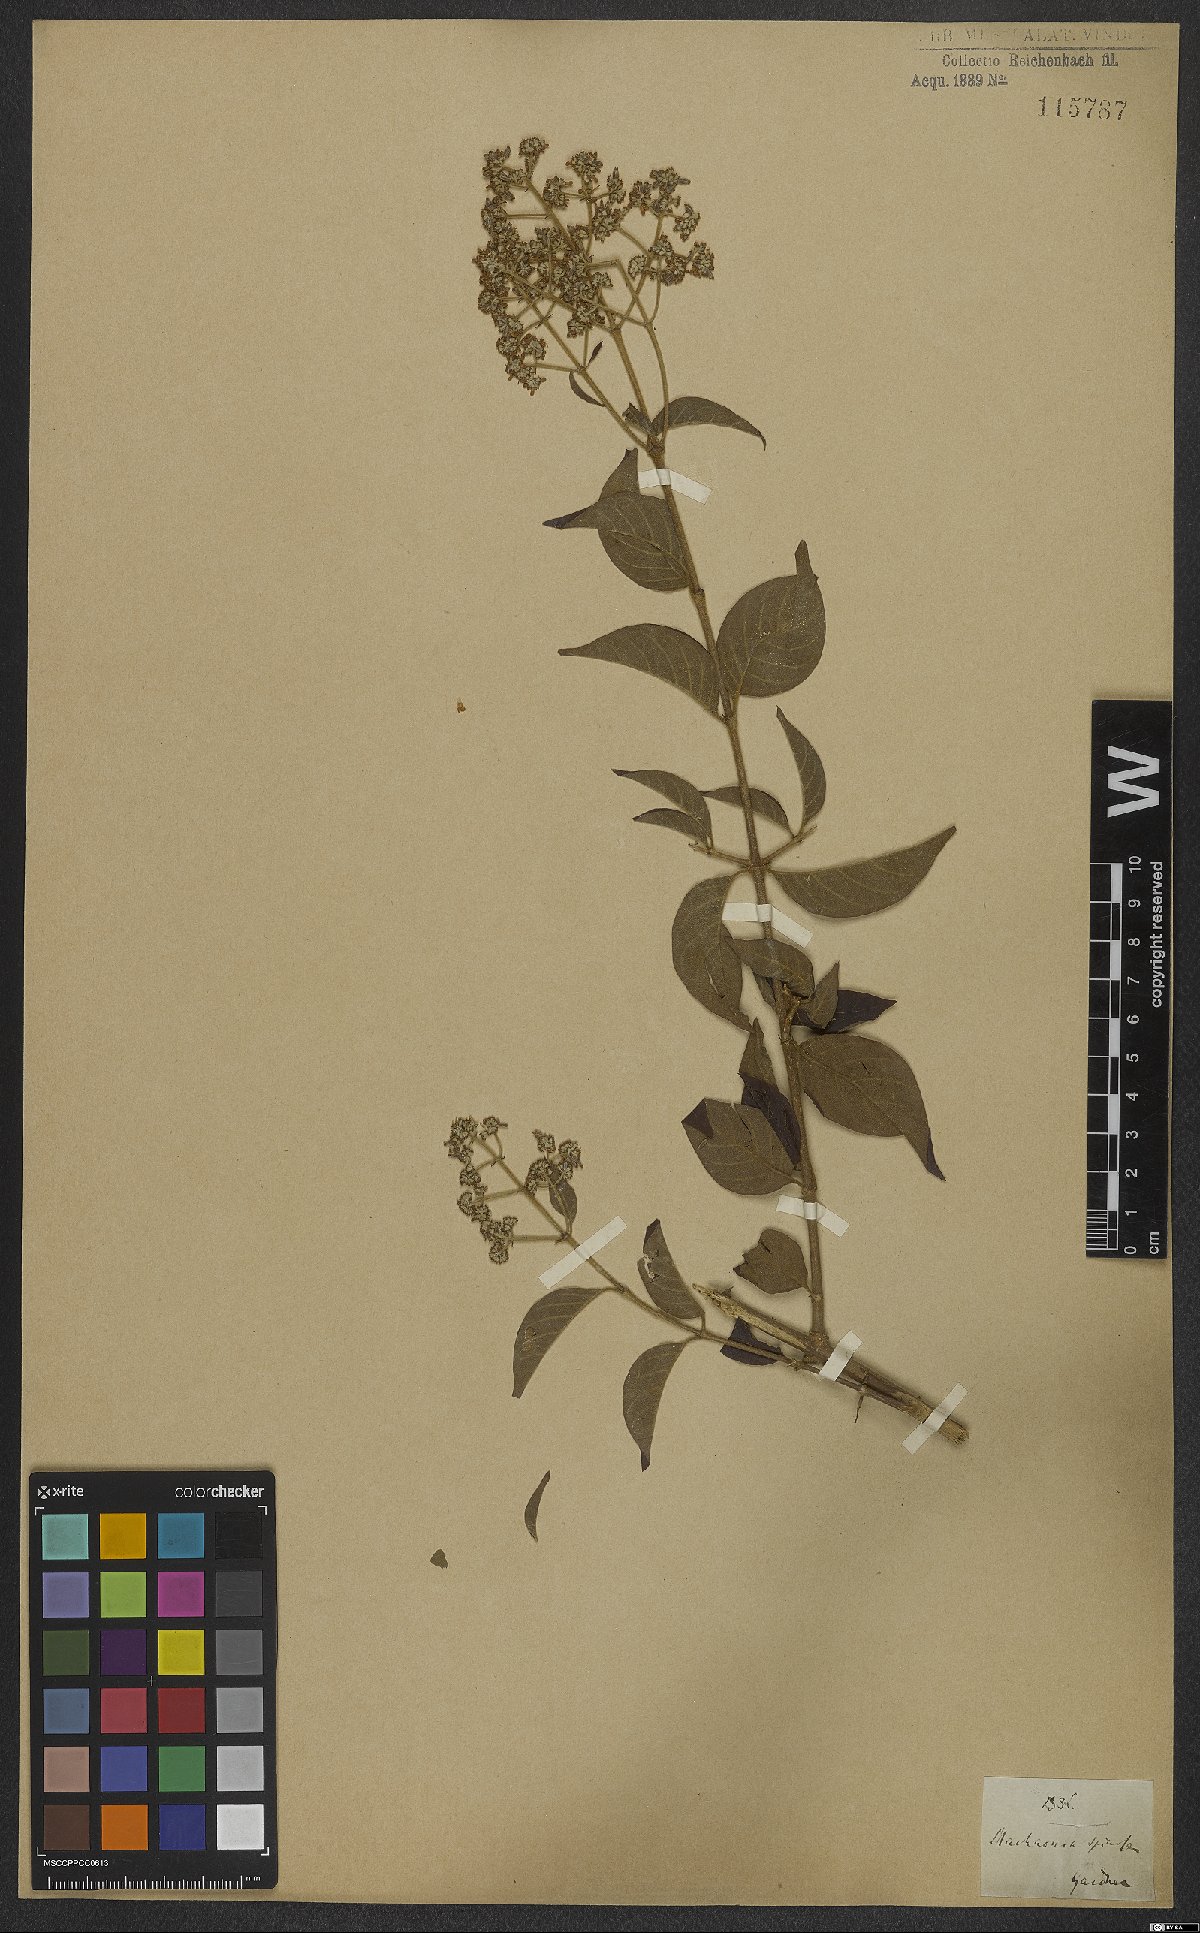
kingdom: Plantae
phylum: Tracheophyta
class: Magnoliopsida
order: Gentianales
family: Rubiaceae
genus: Machaonia
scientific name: Machaonia brasiliensis
